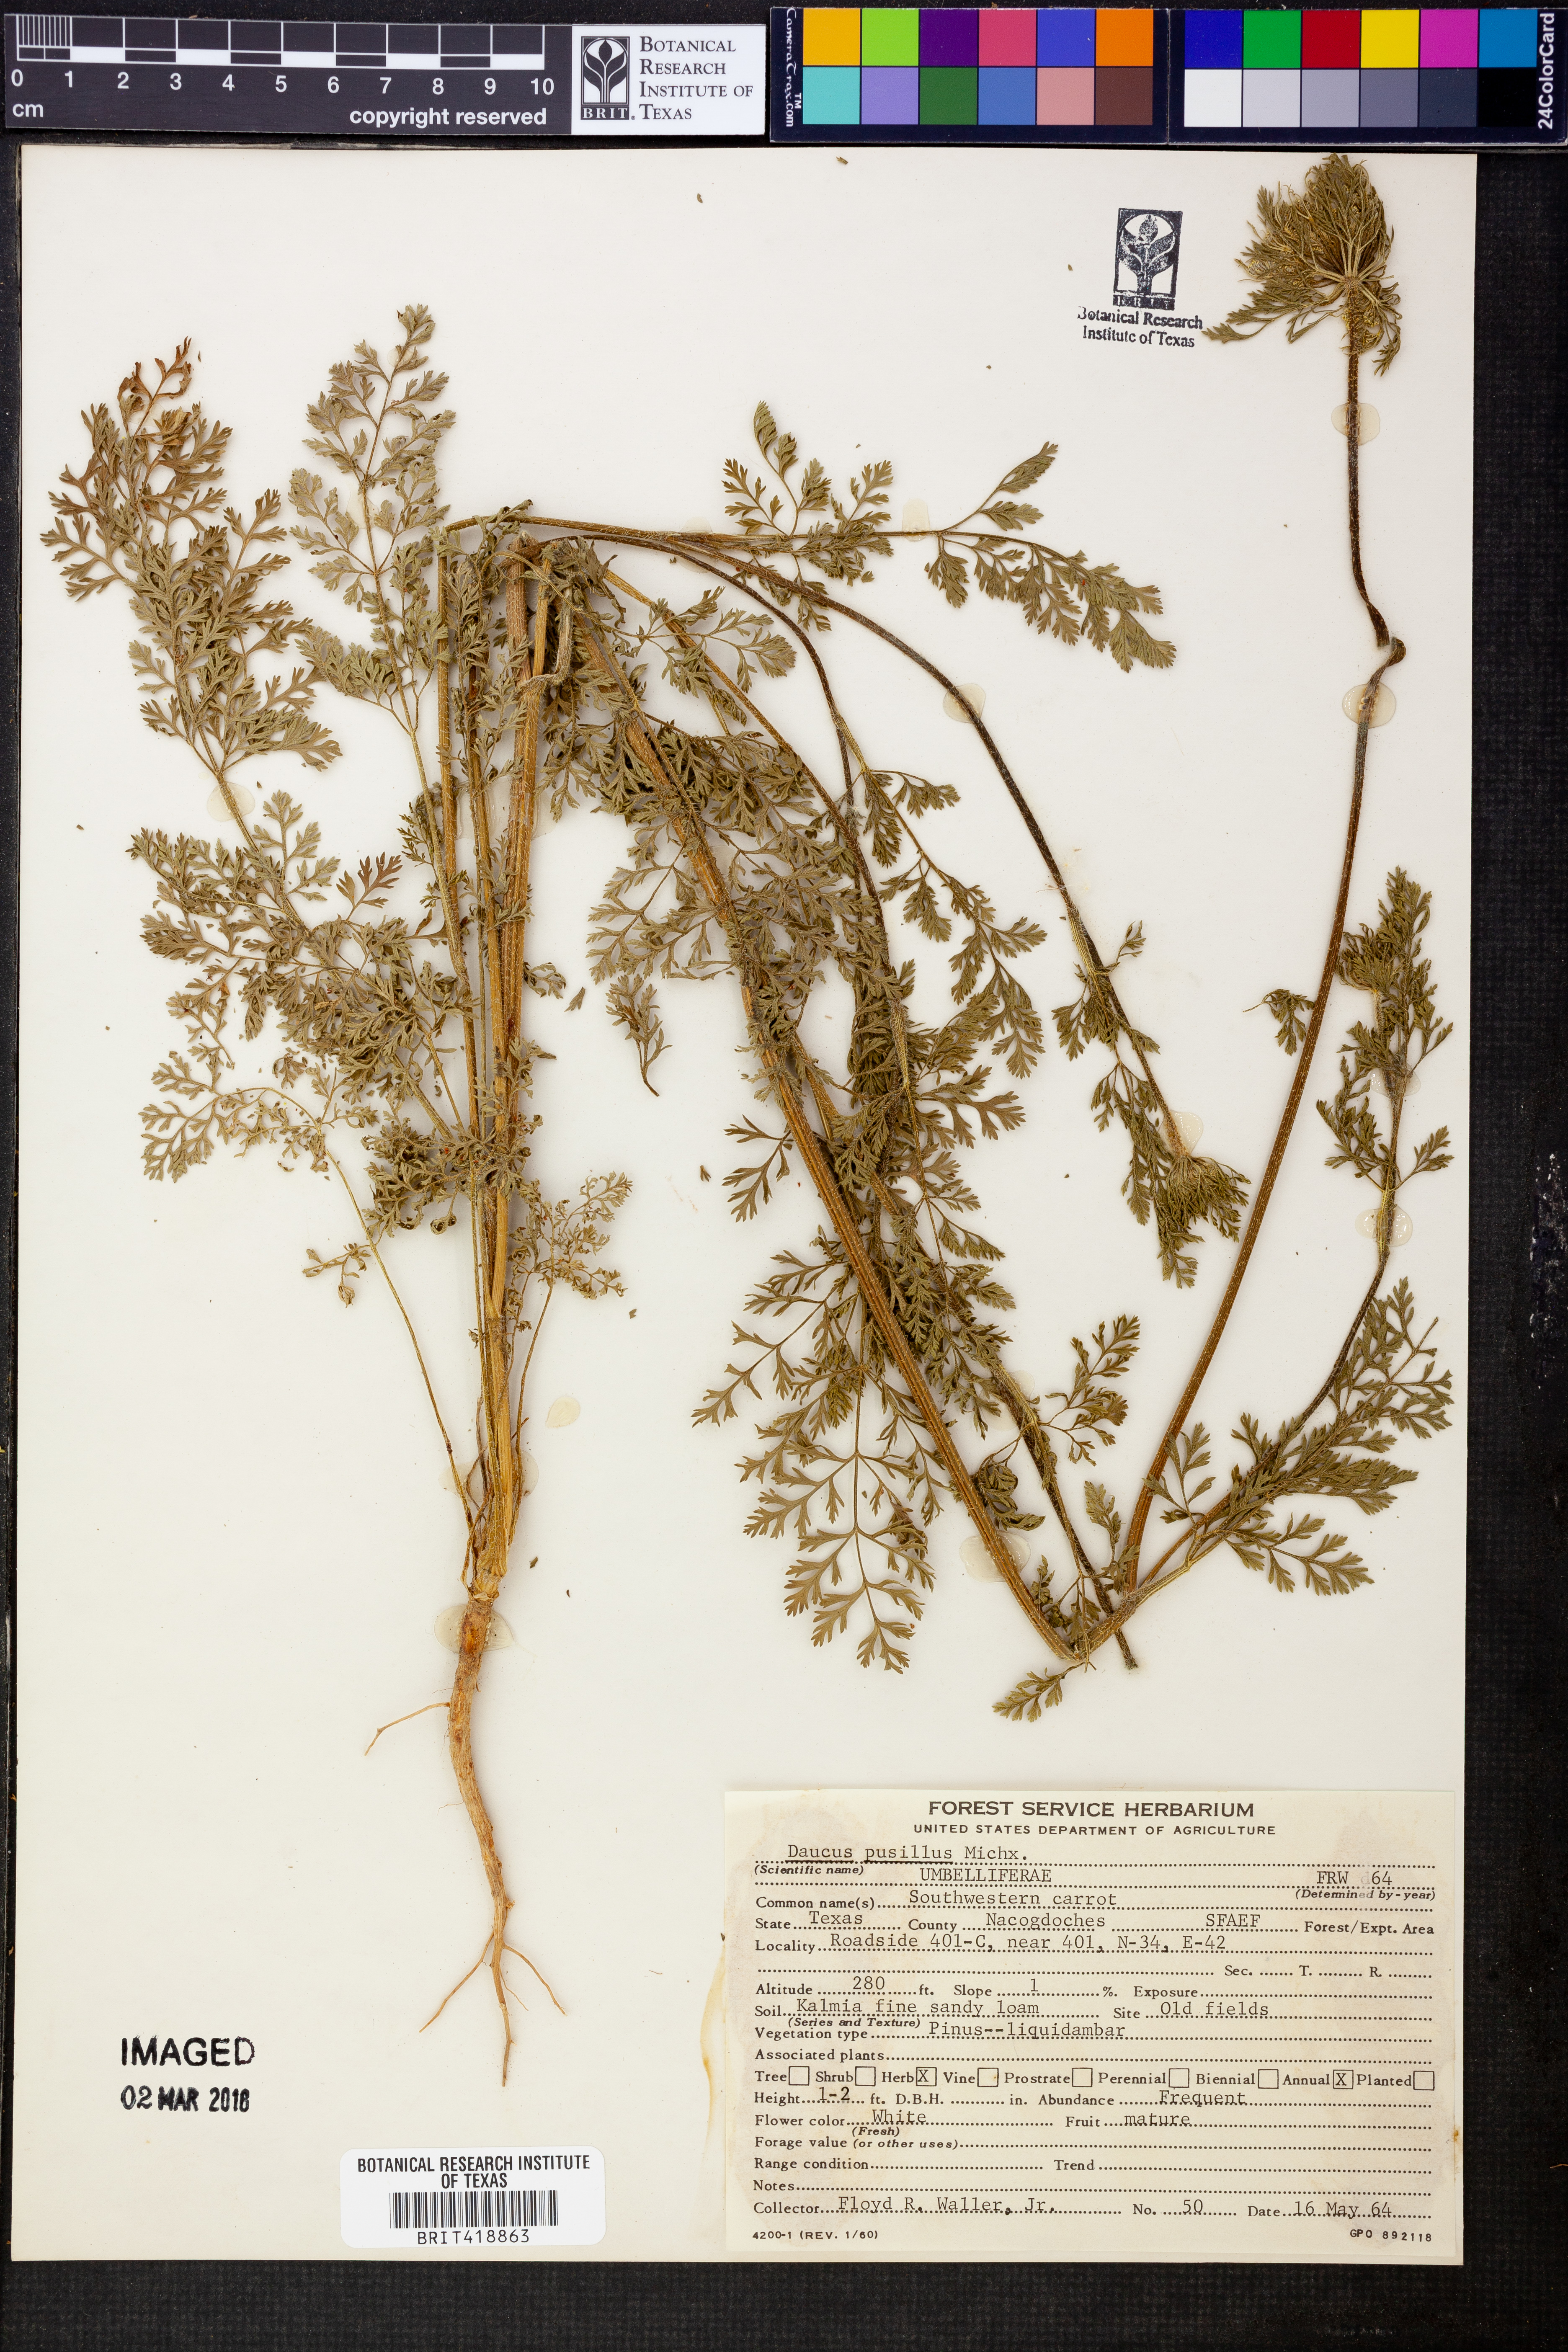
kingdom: Plantae
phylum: Tracheophyta
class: Magnoliopsida
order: Apiales
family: Apiaceae
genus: Daucus
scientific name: Daucus pusillus
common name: Southwest wild carrot
